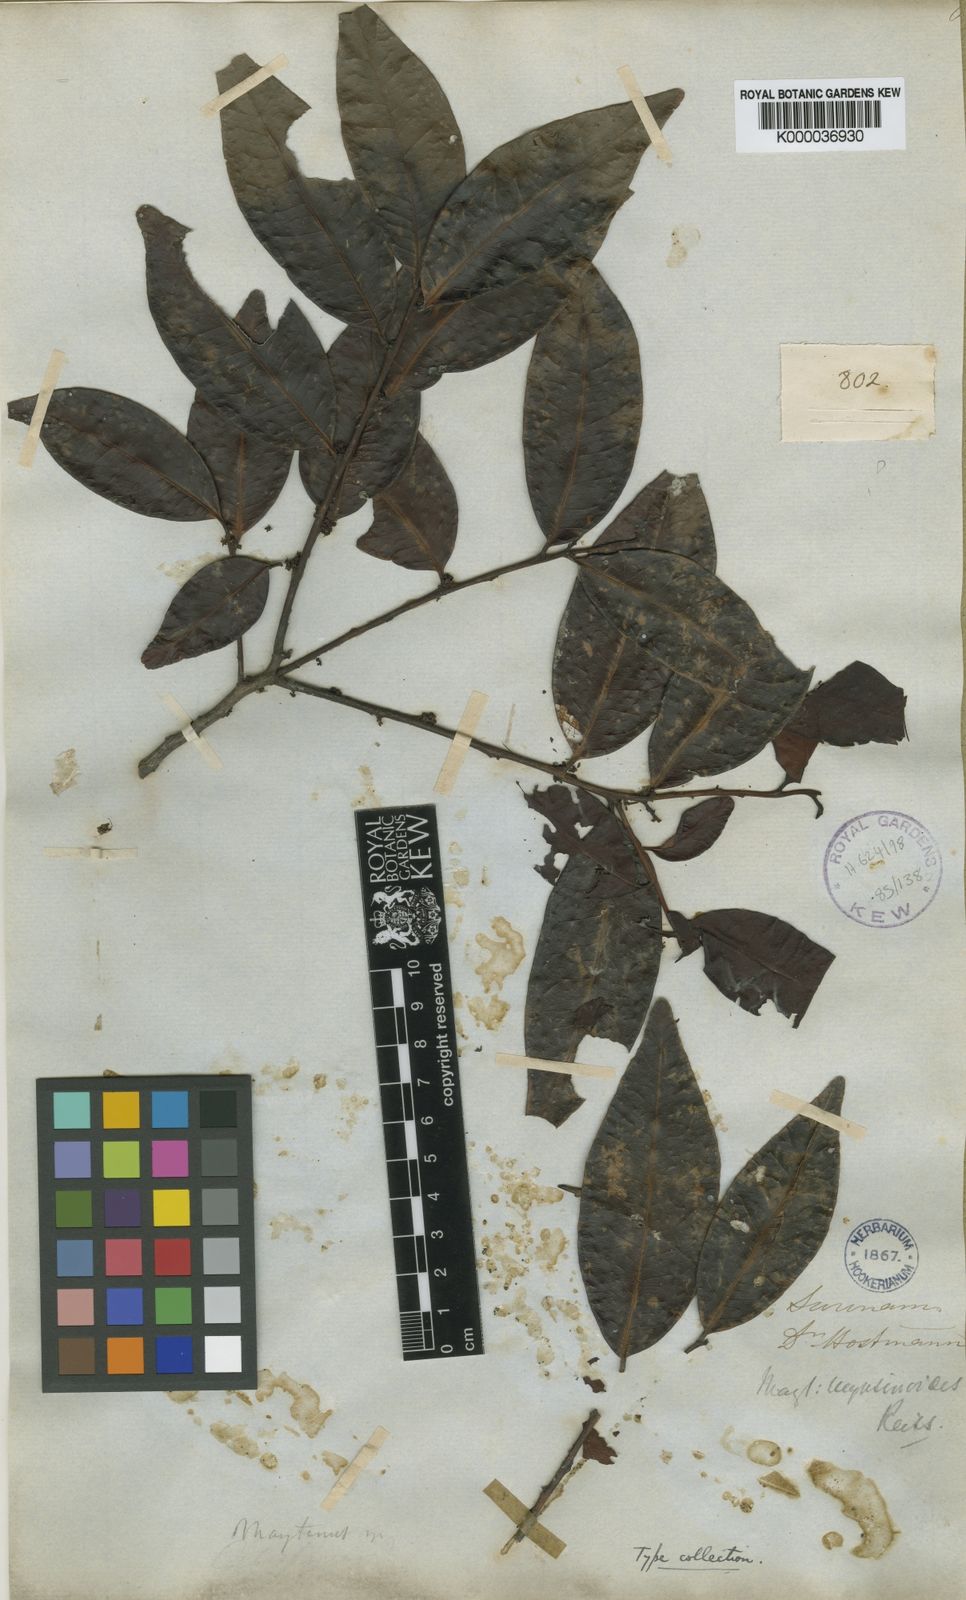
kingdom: Plantae
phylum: Tracheophyta
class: Magnoliopsida
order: Celastrales
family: Celastraceae
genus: Monteverdia
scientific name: Monteverdia myrsinoides
